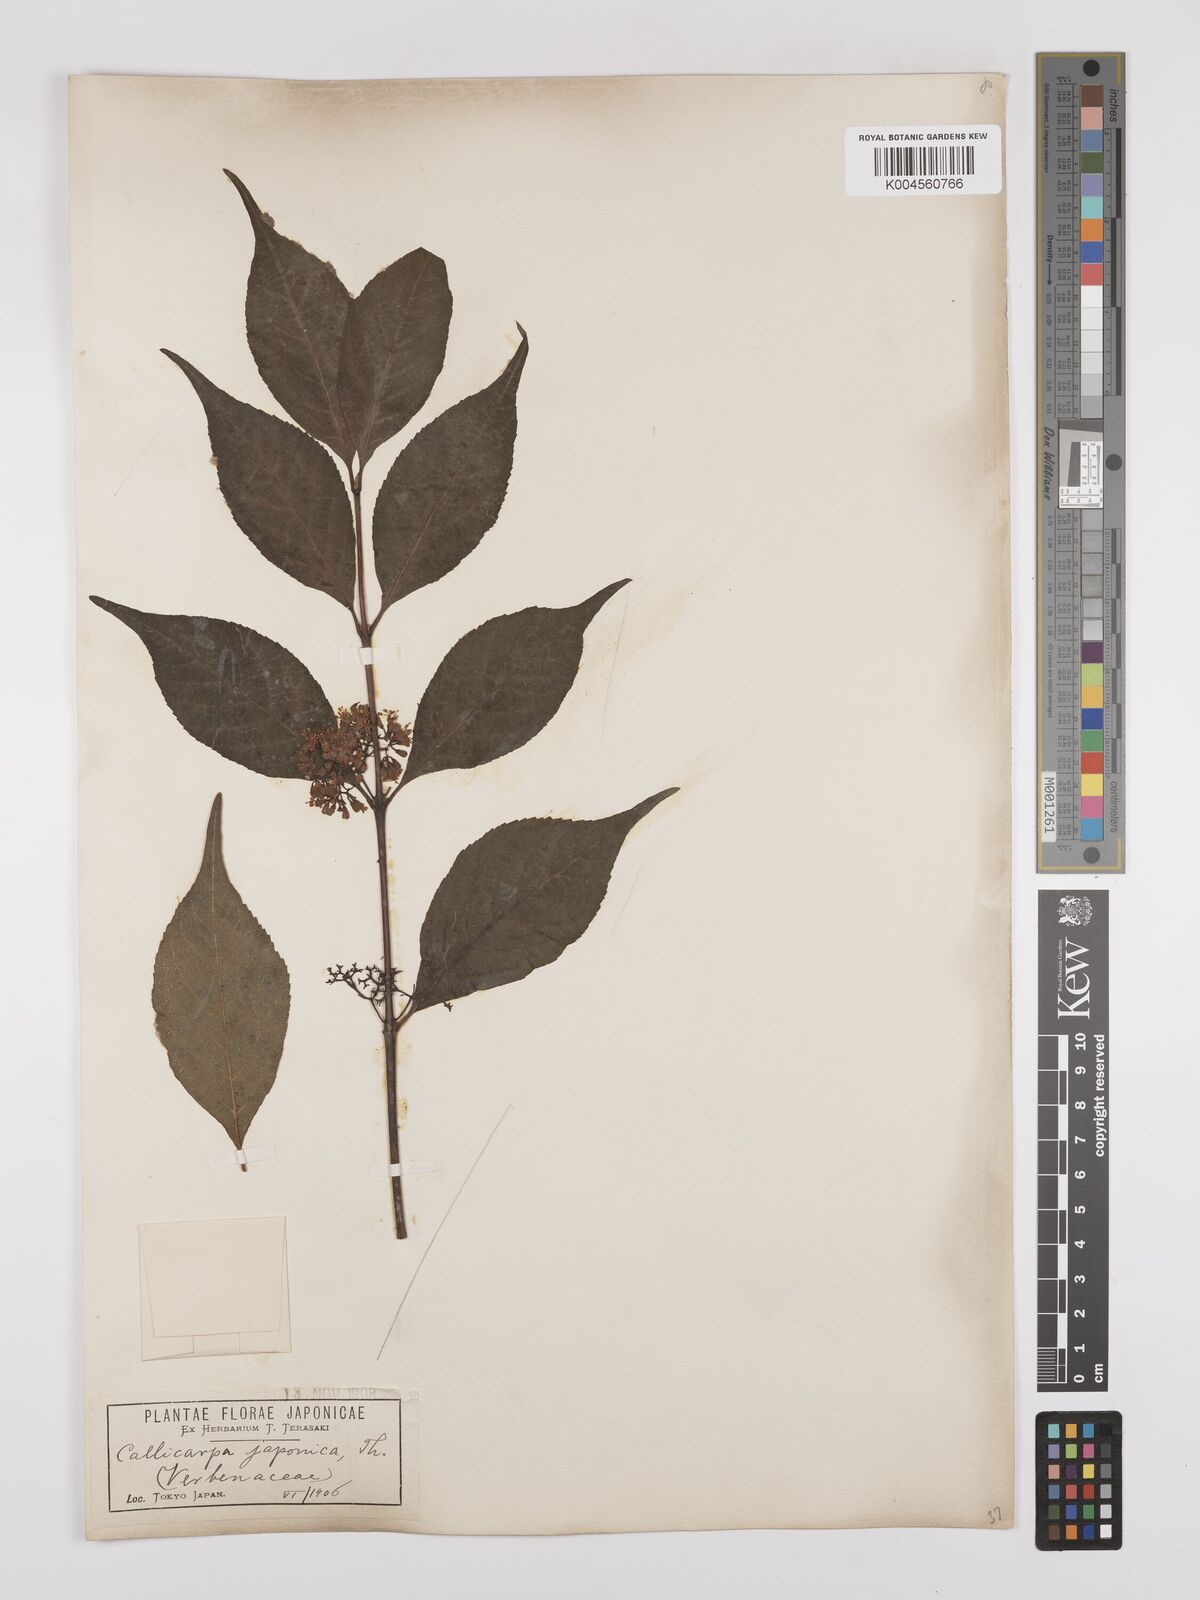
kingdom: Plantae
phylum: Tracheophyta
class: Magnoliopsida
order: Lamiales
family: Lamiaceae
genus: Callicarpa
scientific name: Callicarpa japonica
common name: Japanese beauty-berry
